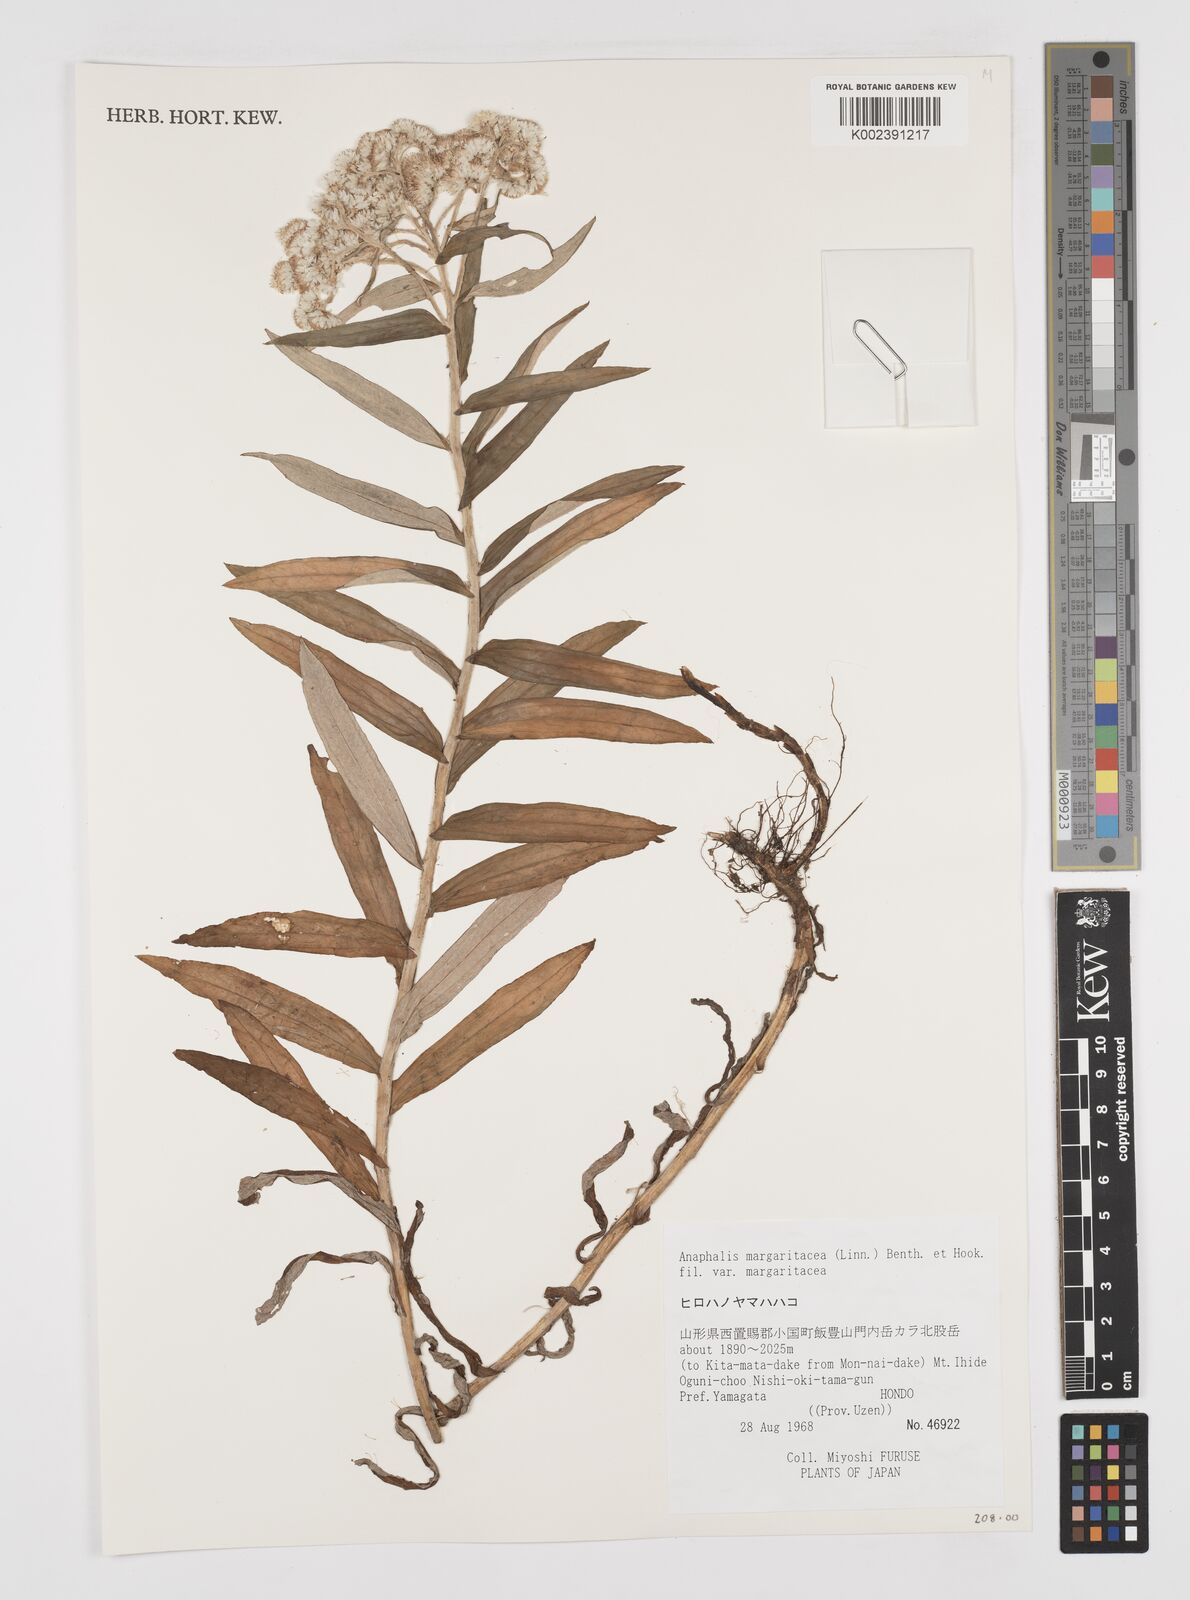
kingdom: Plantae
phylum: Tracheophyta
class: Magnoliopsida
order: Asterales
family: Asteraceae
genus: Anaphalis
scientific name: Anaphalis margaritacea
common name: Pearly everlasting
